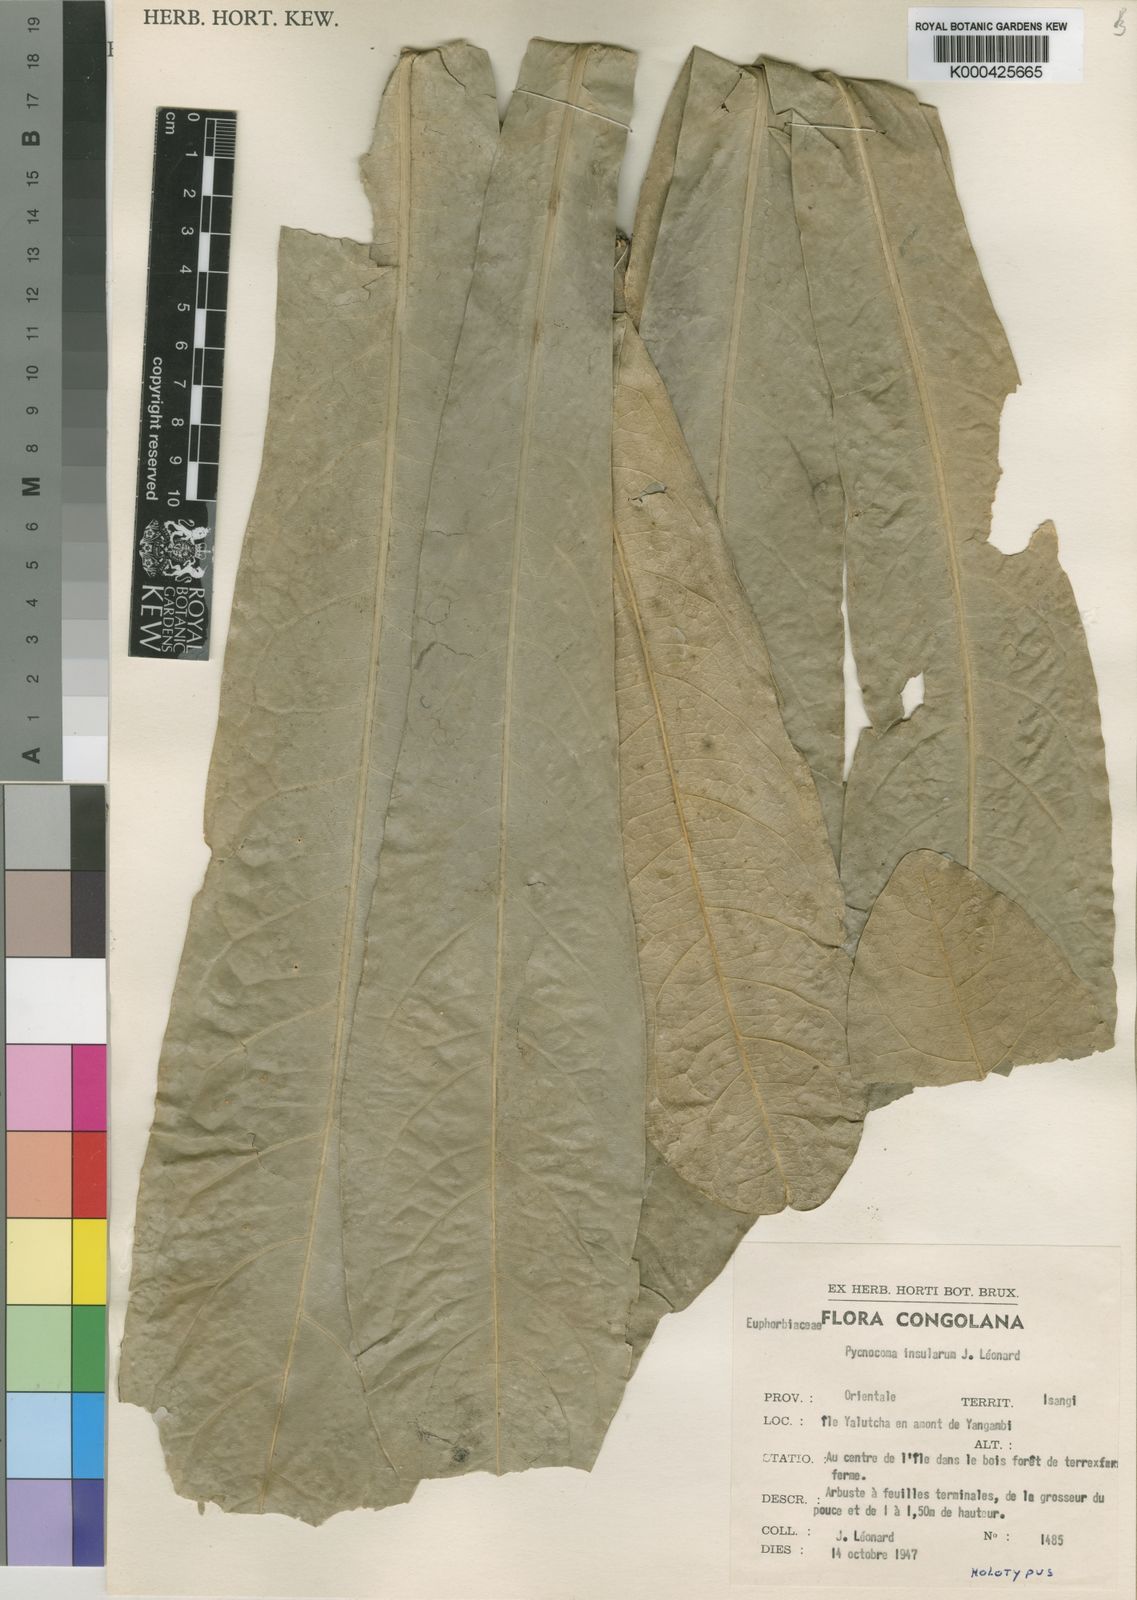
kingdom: Plantae
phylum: Tracheophyta
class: Magnoliopsida
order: Malpighiales
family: Euphorbiaceae
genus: Pycnocoma
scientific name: Pycnocoma
